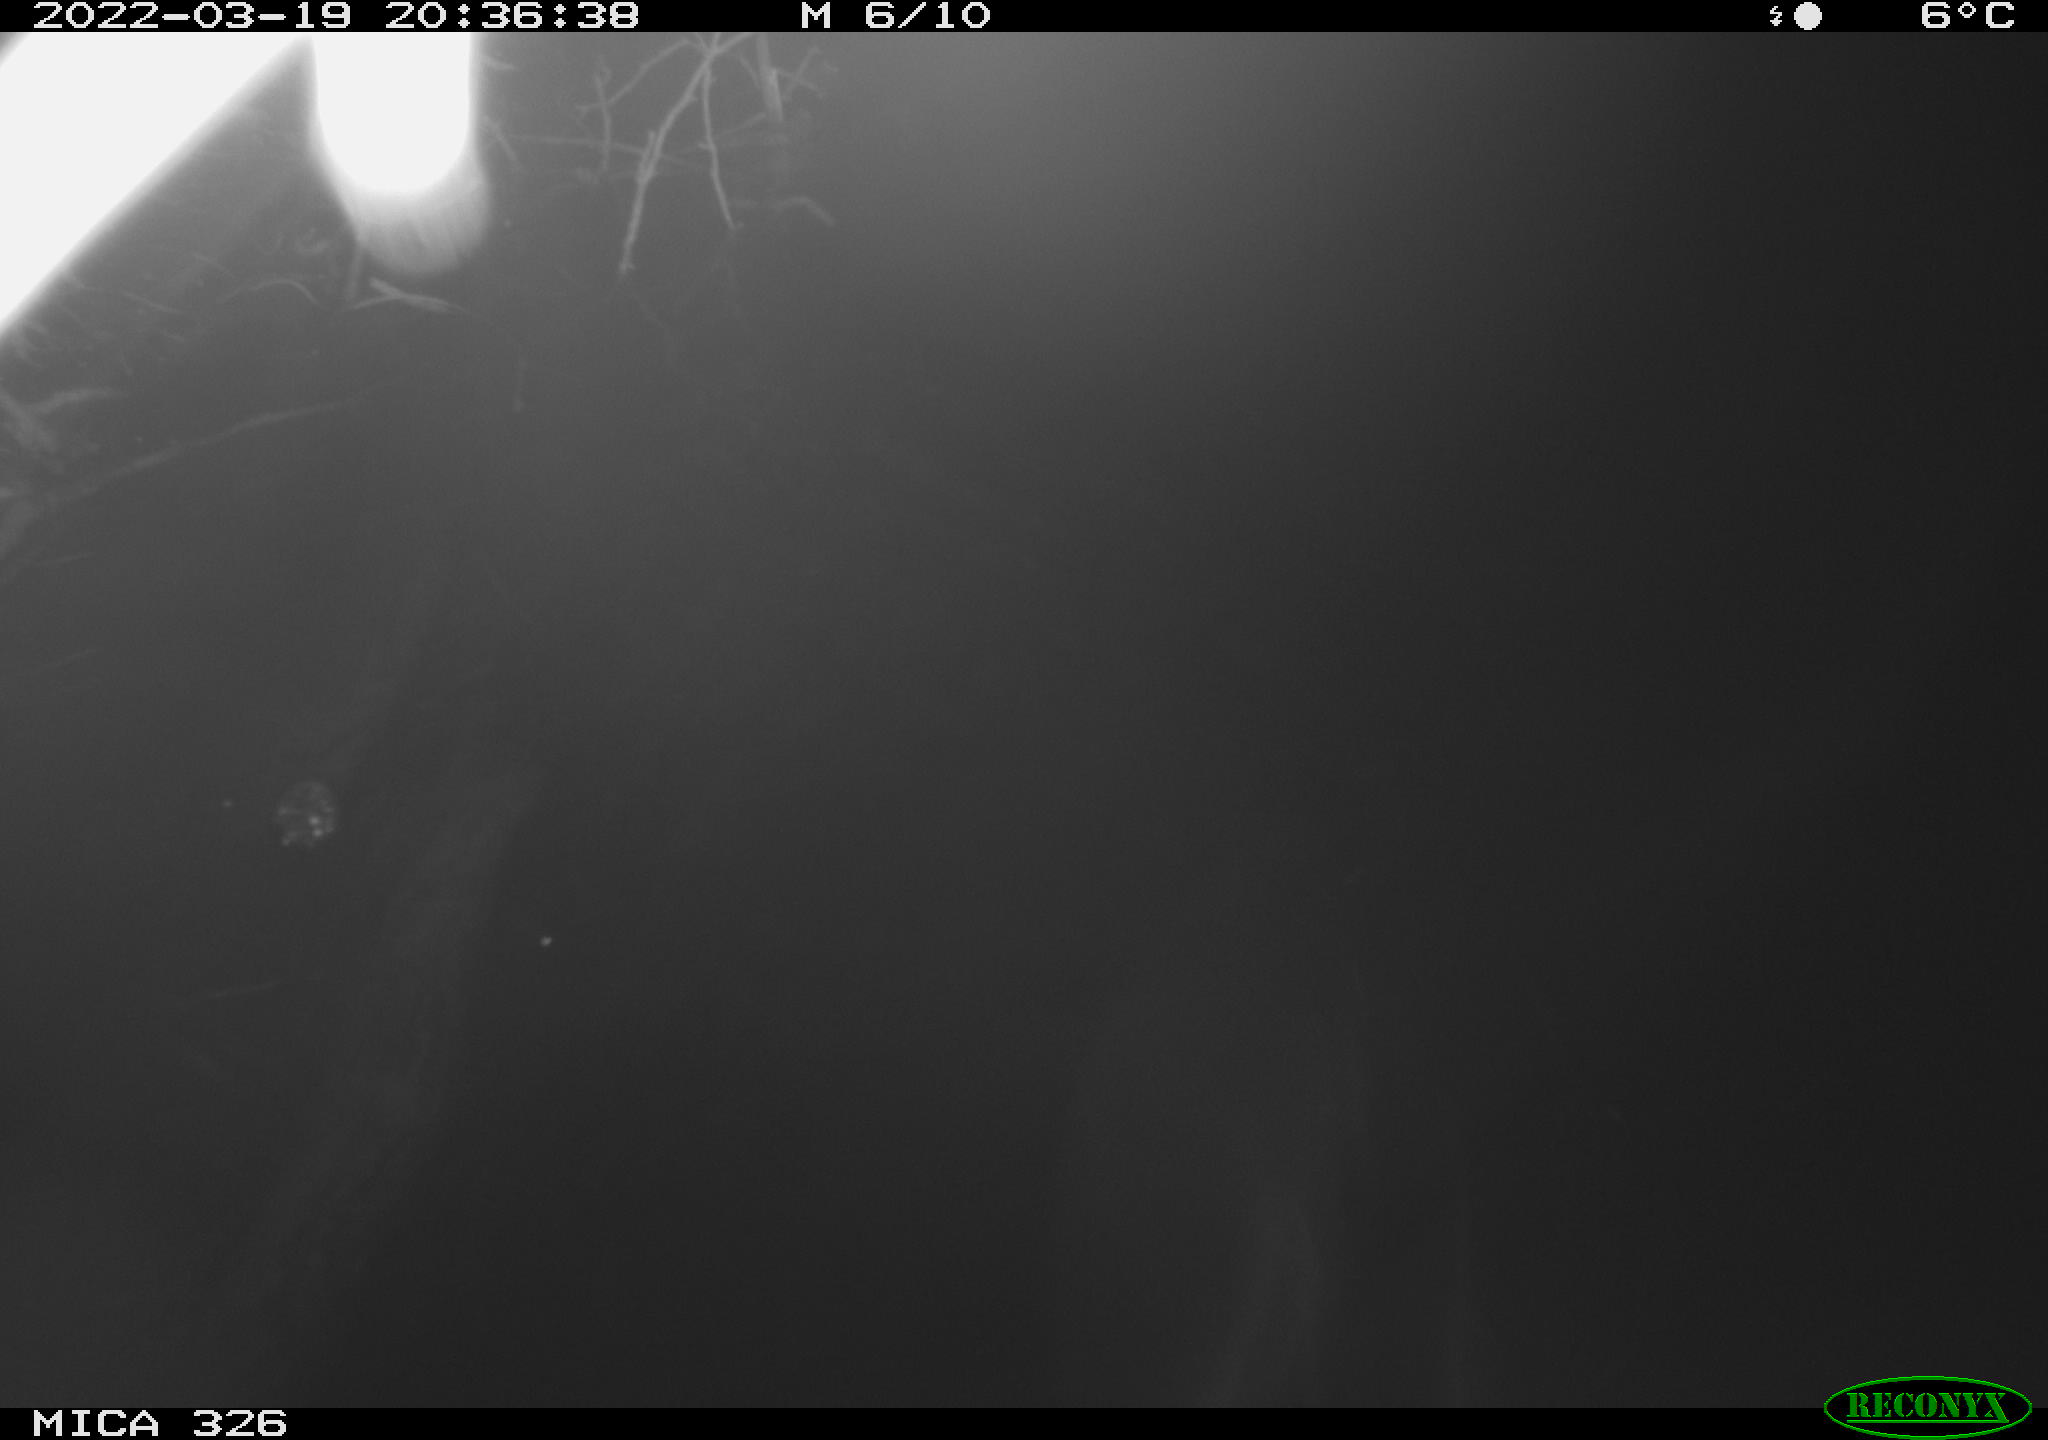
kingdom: Animalia
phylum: Chordata
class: Mammalia
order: Rodentia
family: Muridae
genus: Rattus
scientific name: Rattus norvegicus
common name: Brown rat
